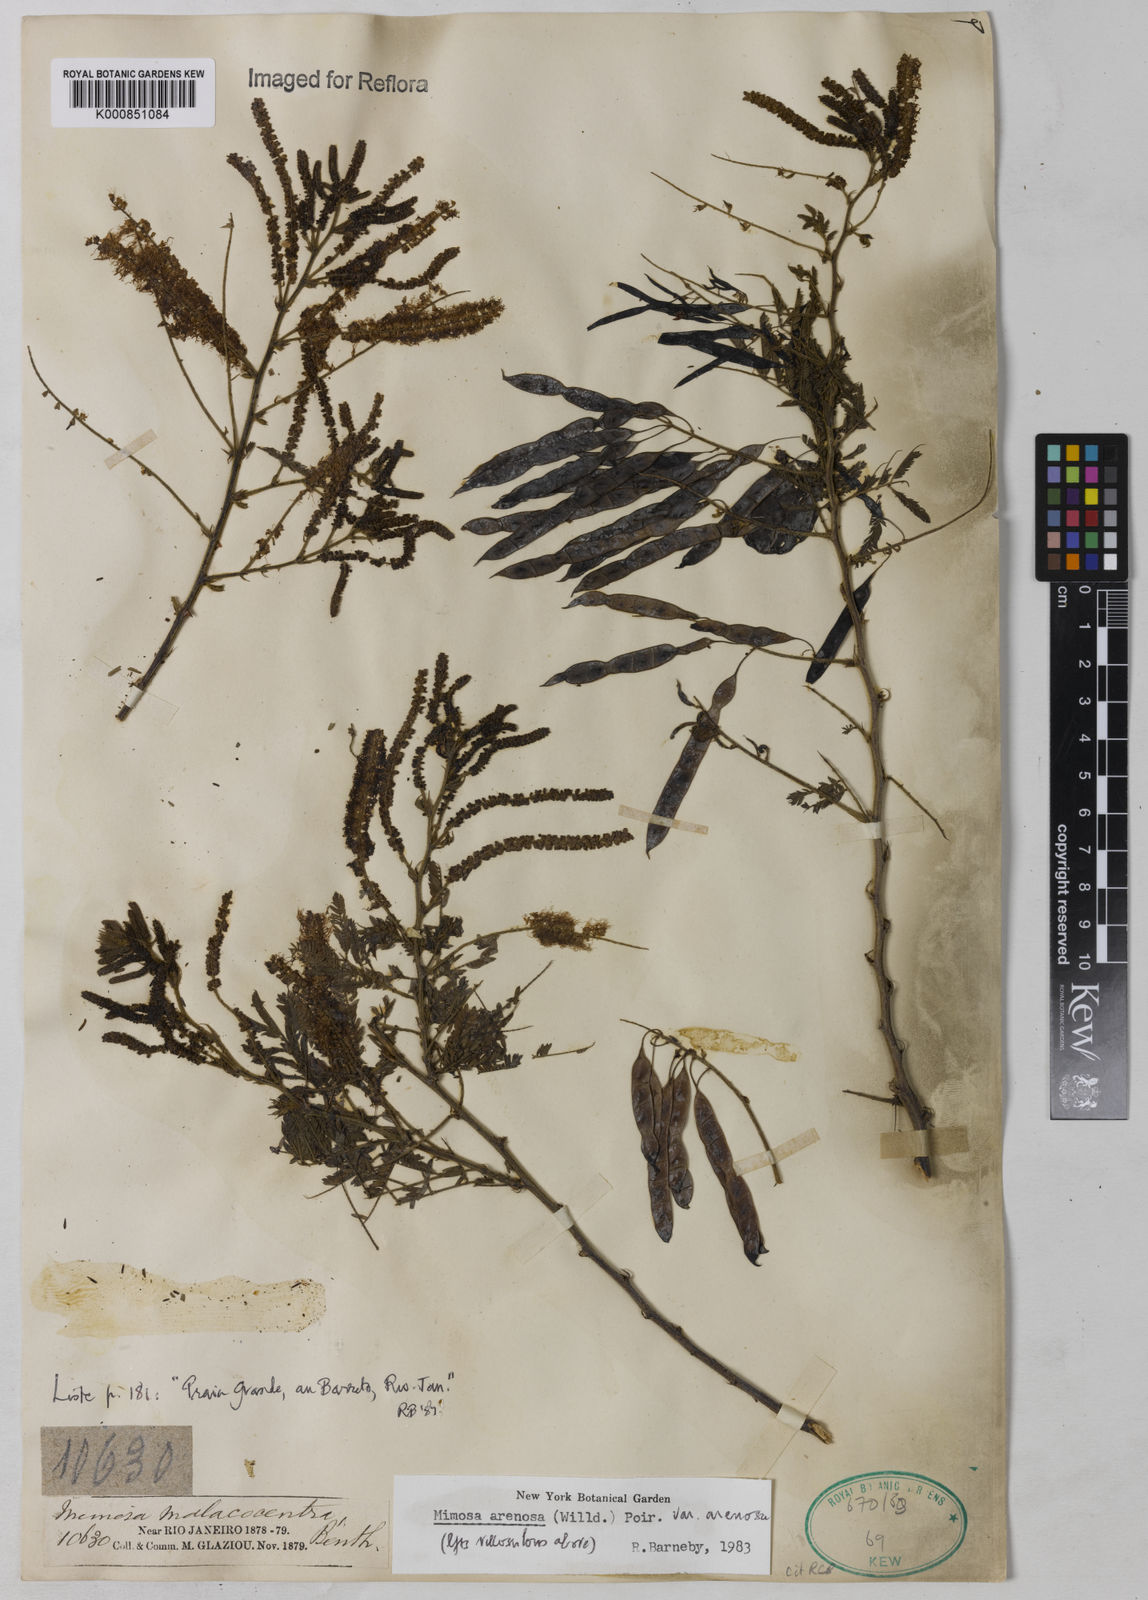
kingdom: Plantae
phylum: Tracheophyta
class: Magnoliopsida
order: Fabales
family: Fabaceae
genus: Mimosa
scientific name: Mimosa arenosa
